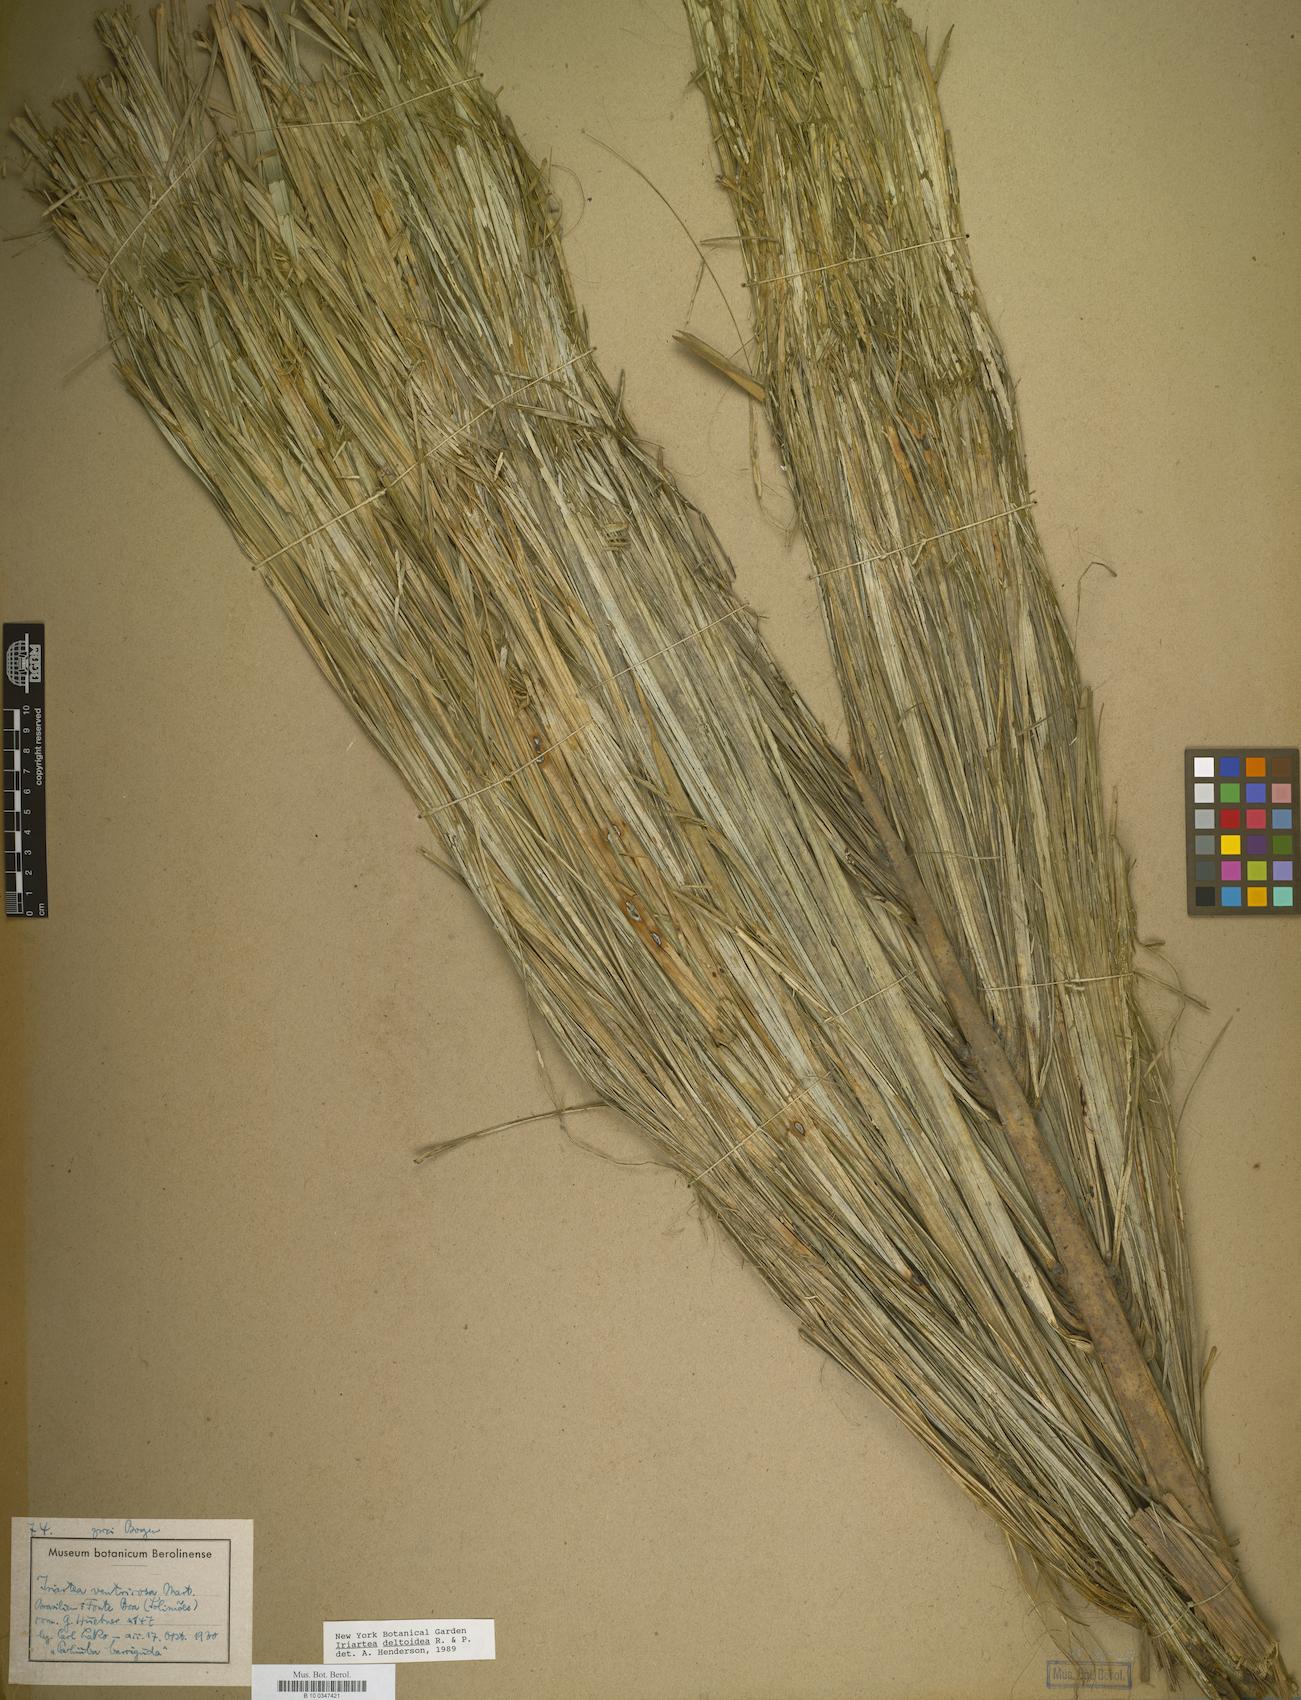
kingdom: Plantae
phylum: Tracheophyta
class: Liliopsida
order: Arecales
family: Arecaceae
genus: Iriartea
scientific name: Iriartea deltoidea
